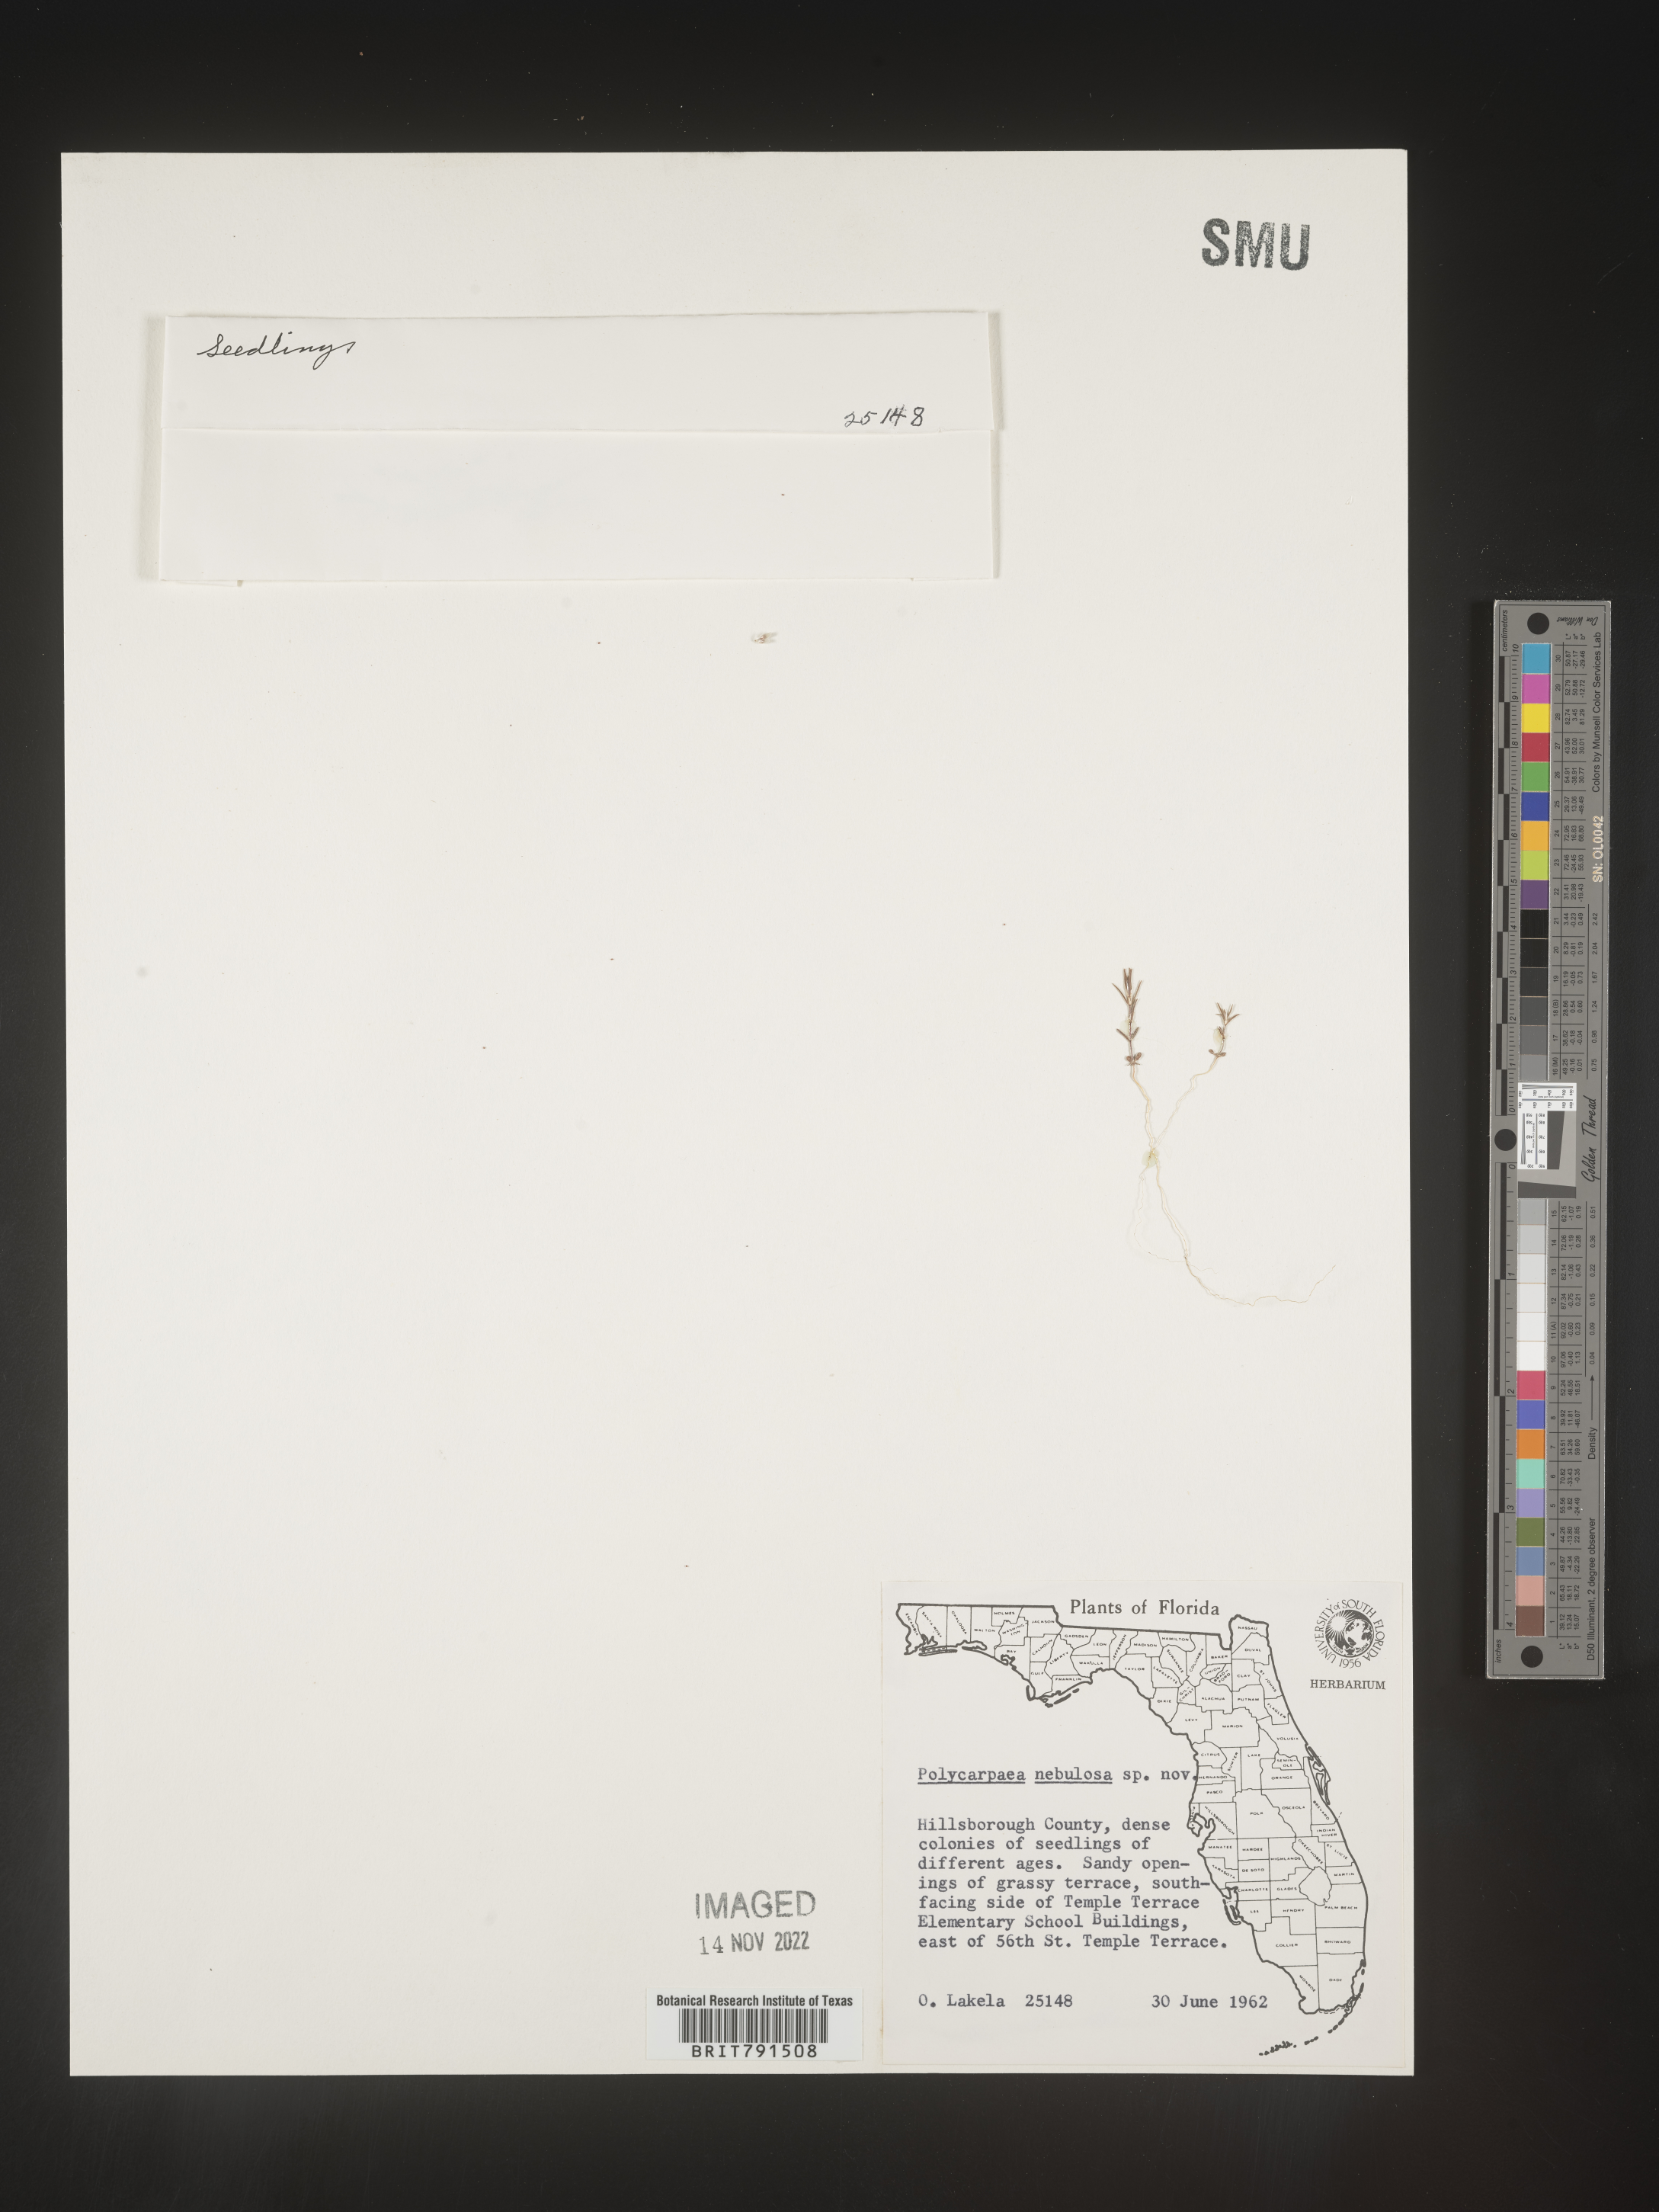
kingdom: Plantae
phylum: Tracheophyta
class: Magnoliopsida
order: Caryophyllales
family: Caryophyllaceae
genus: Polycarpaea
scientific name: Polycarpaea
